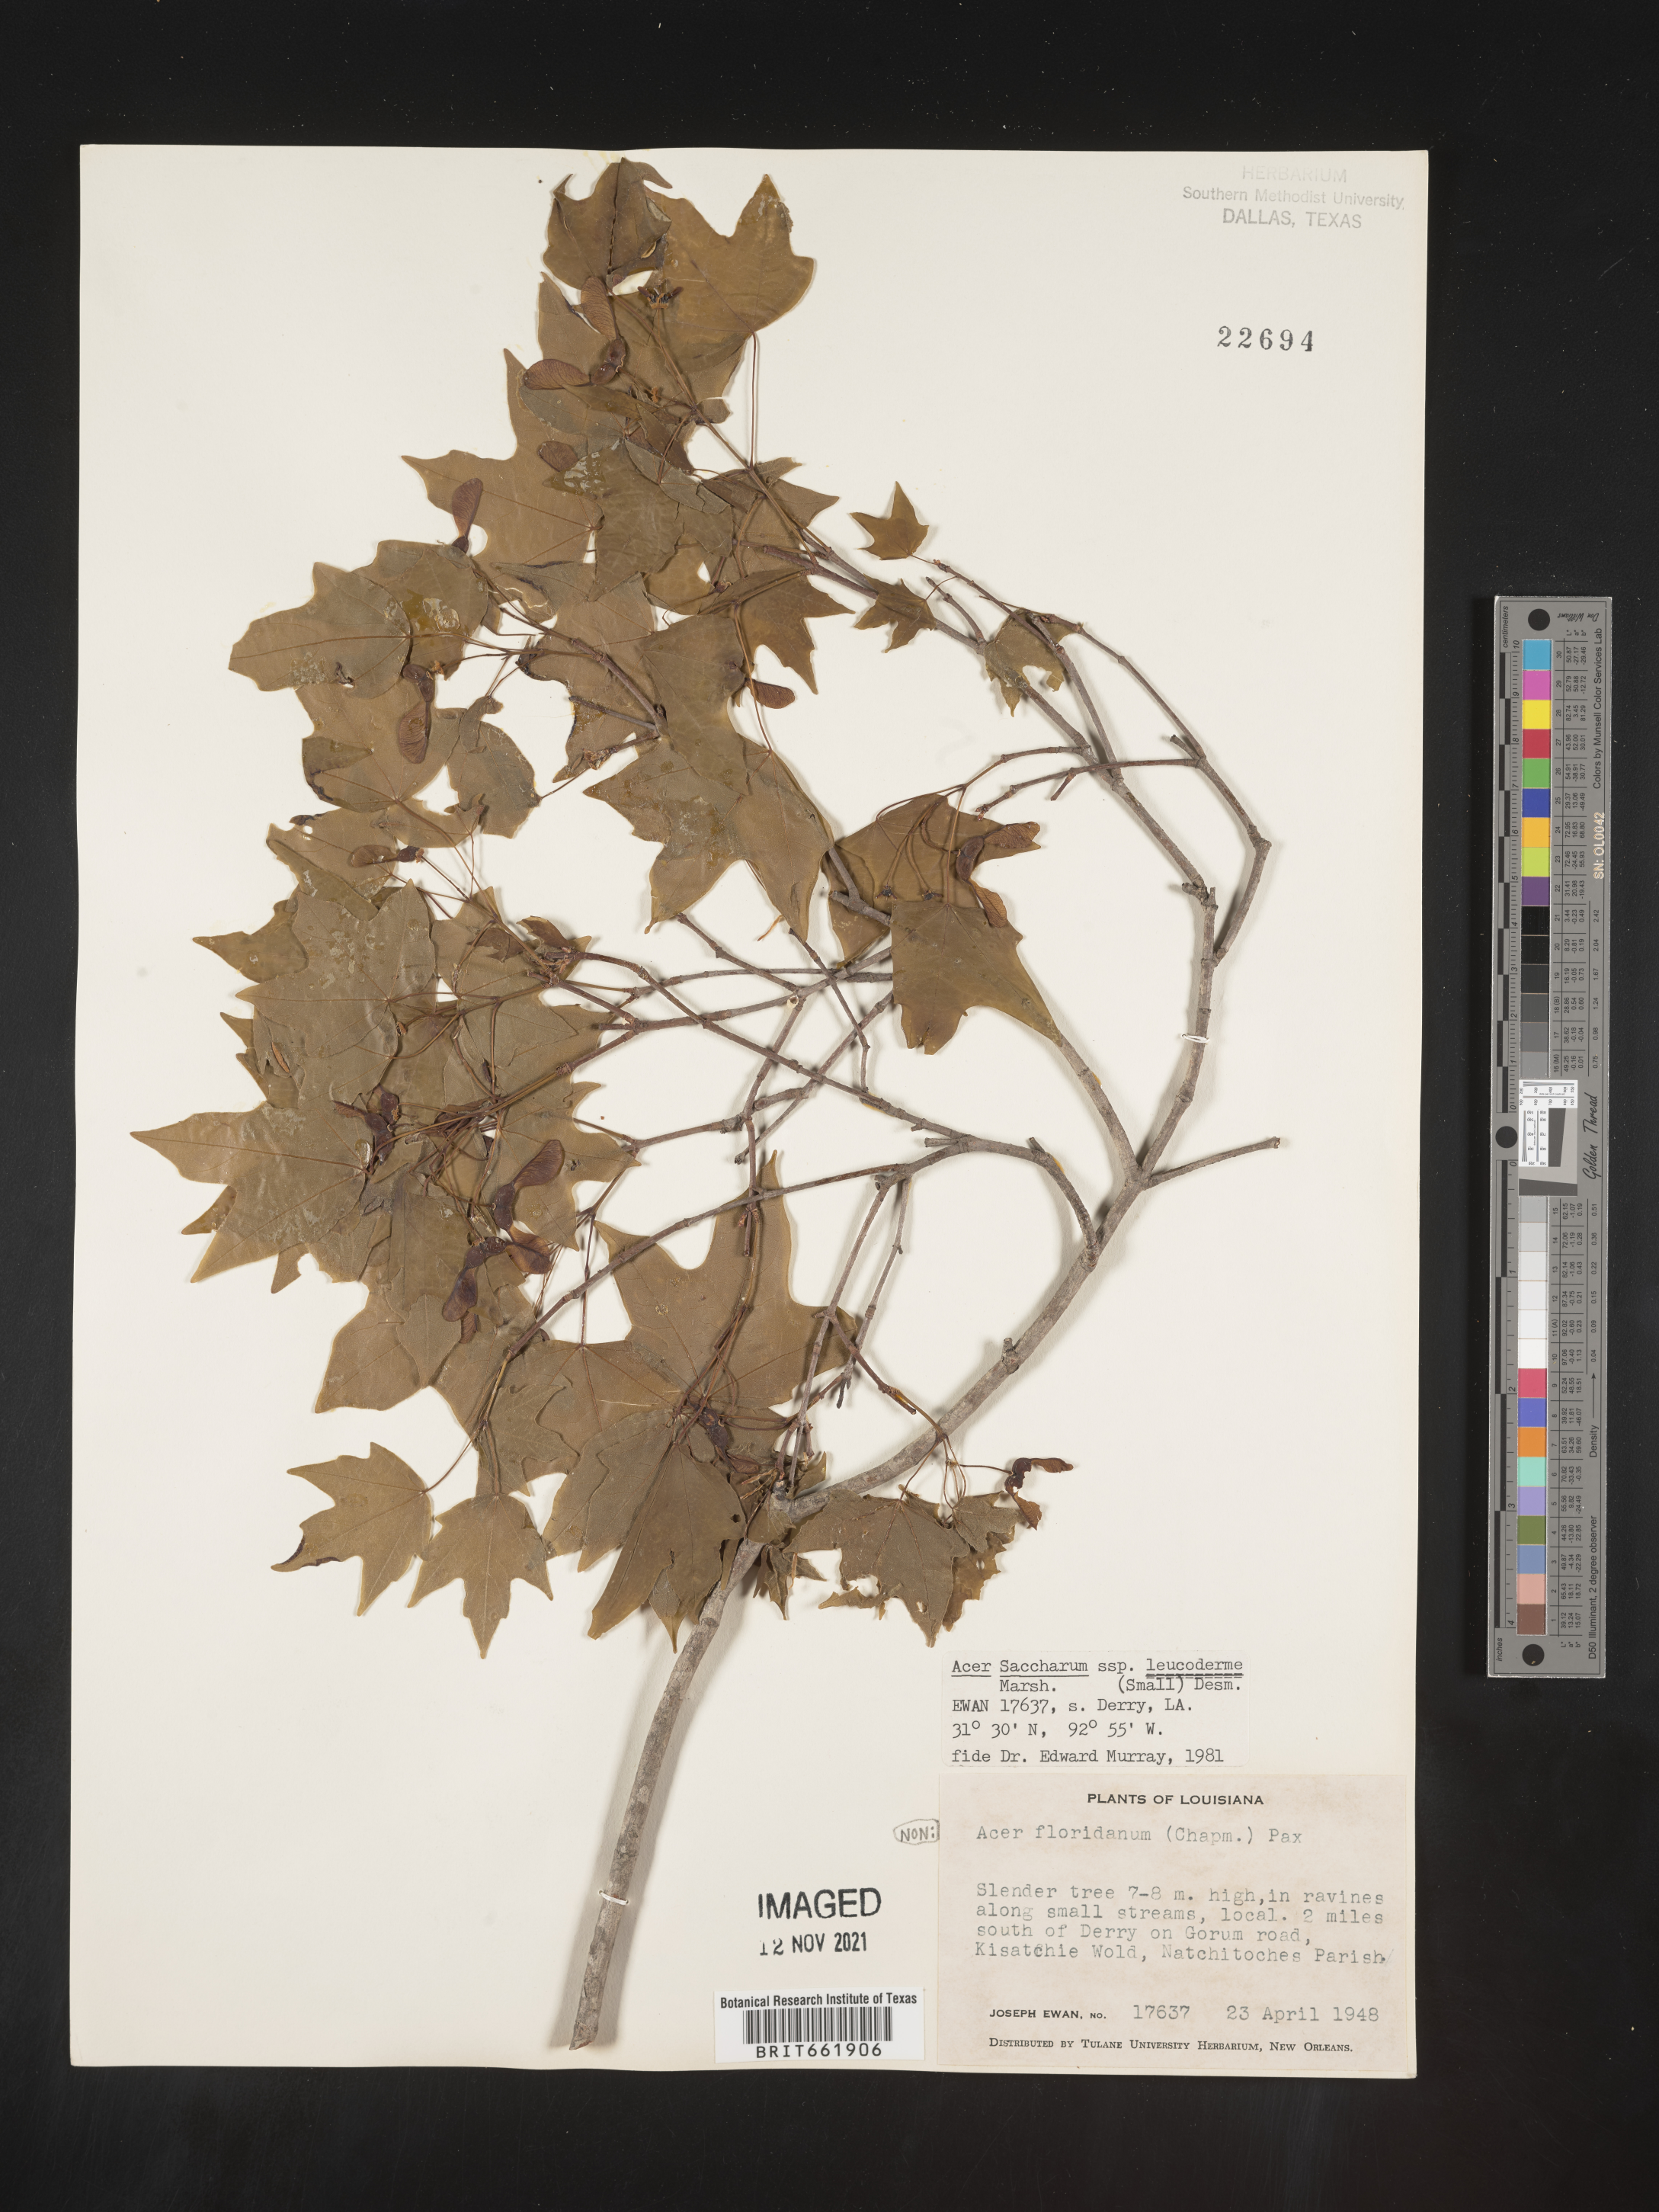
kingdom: Plantae
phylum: Tracheophyta
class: Magnoliopsida
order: Sapindales
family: Sapindaceae
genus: Acer
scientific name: Acer leucoderme
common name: Chalk maple
